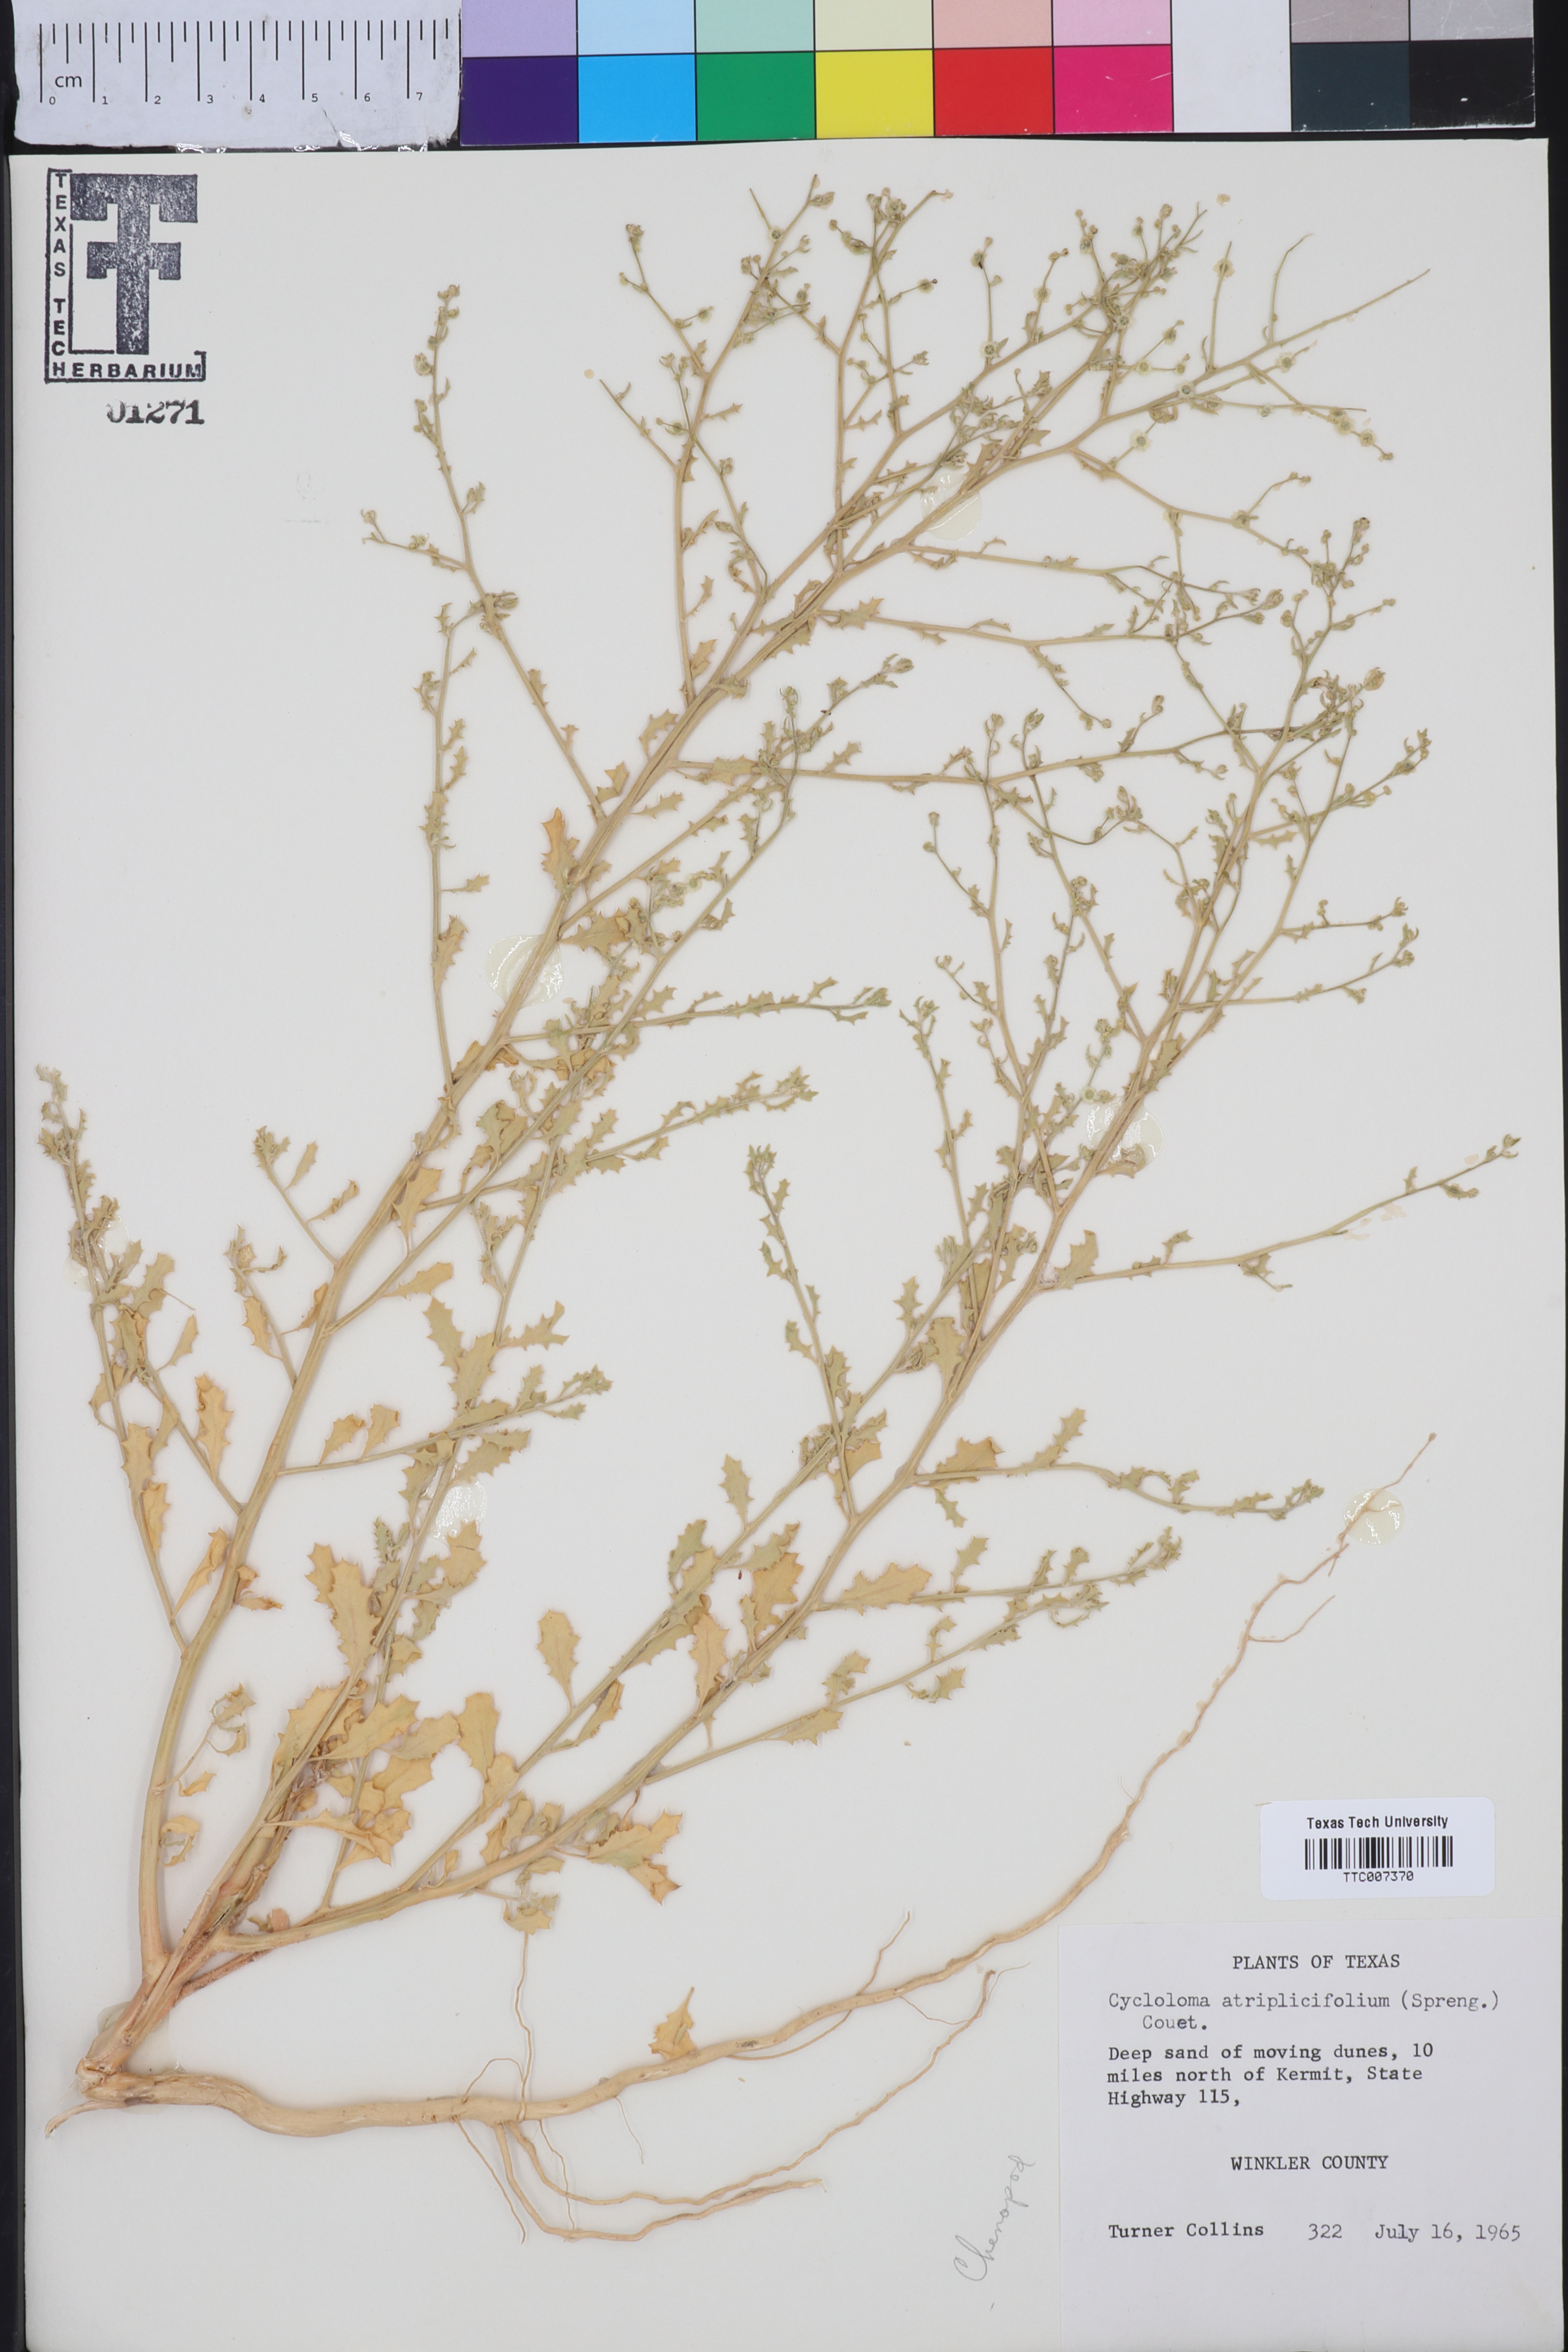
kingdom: Plantae
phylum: Tracheophyta
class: Magnoliopsida
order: Caryophyllales
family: Amaranthaceae
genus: Dysphania
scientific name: Dysphania atriplicifolia
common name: Plains tumbleweed
